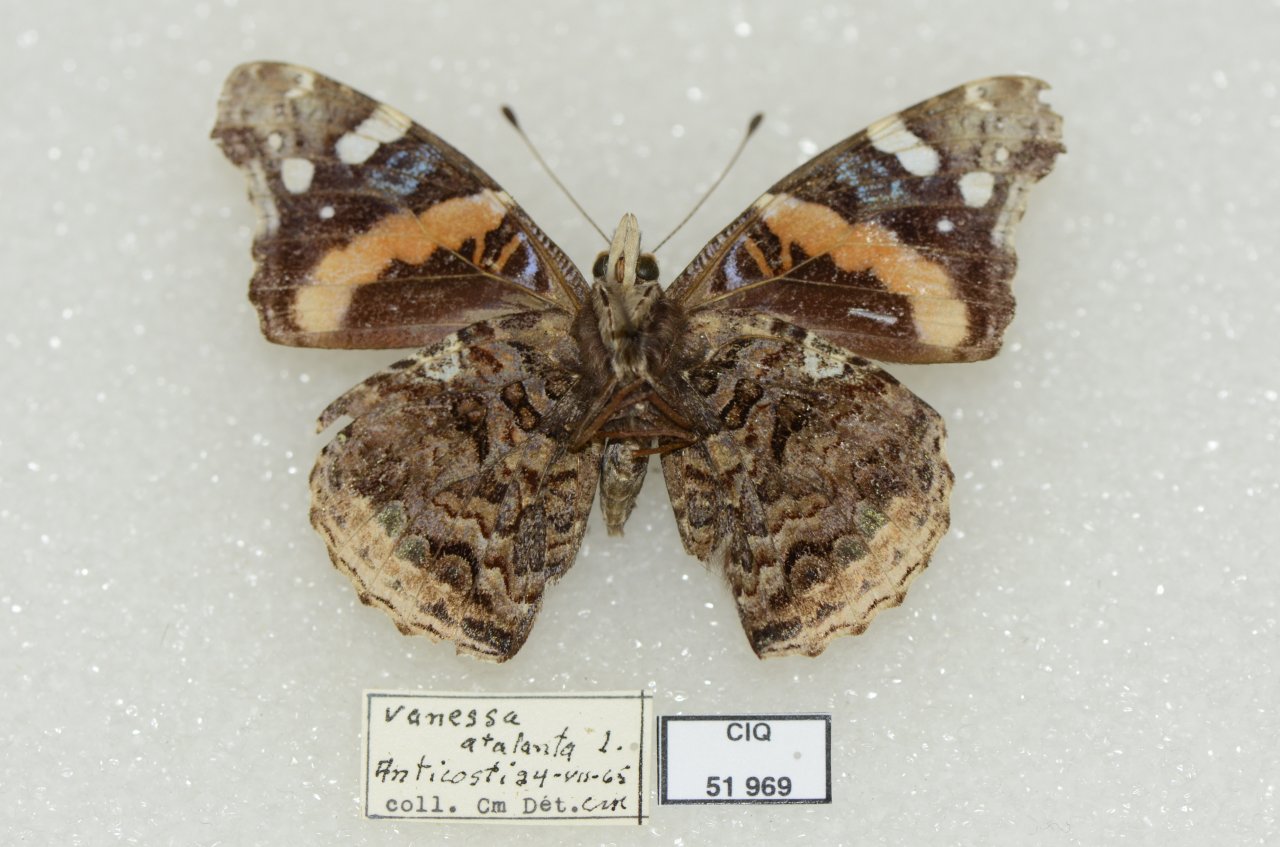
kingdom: Animalia
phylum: Arthropoda
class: Insecta
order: Lepidoptera
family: Nymphalidae
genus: Vanessa
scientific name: Vanessa atalanta
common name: Red Admiral
